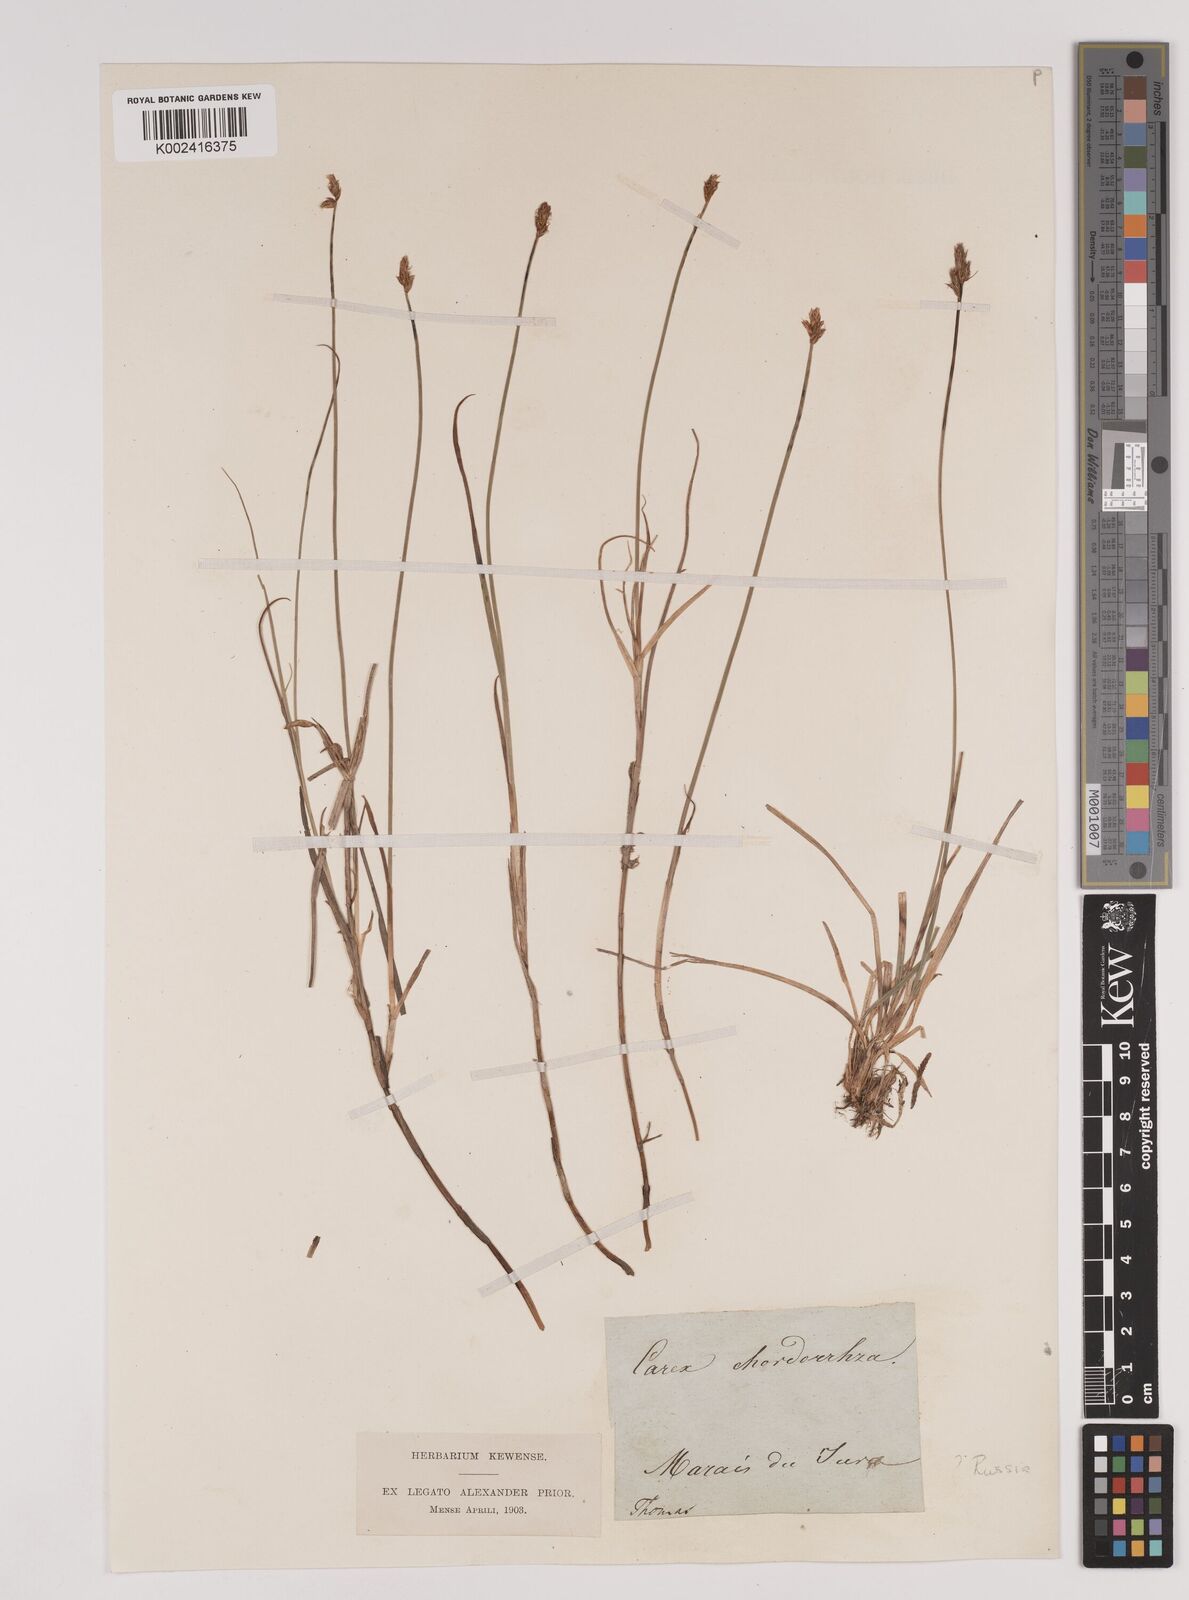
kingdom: Plantae
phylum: Tracheophyta
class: Liliopsida
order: Poales
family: Cyperaceae
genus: Carex
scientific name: Carex chordorrhiza
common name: String sedge
